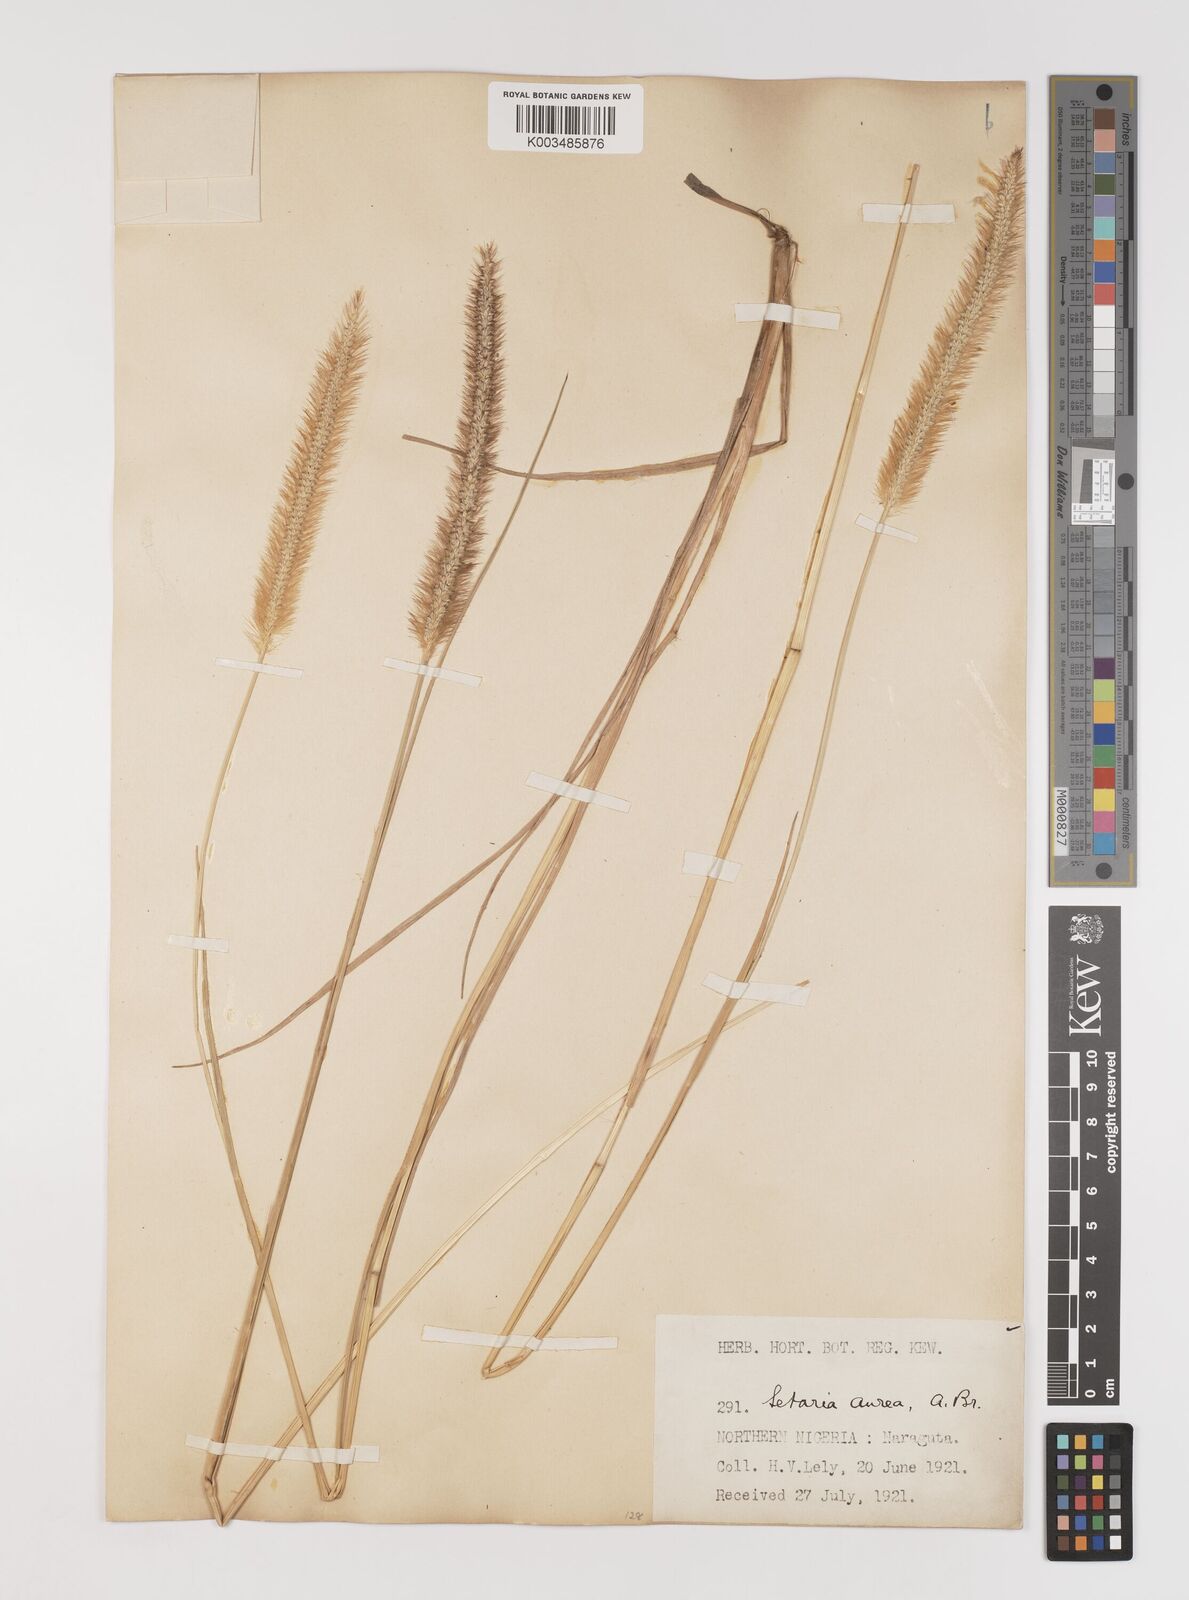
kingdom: Plantae
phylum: Tracheophyta
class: Liliopsida
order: Poales
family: Poaceae
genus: Setaria
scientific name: Setaria sphacelata
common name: African bristlegrass
